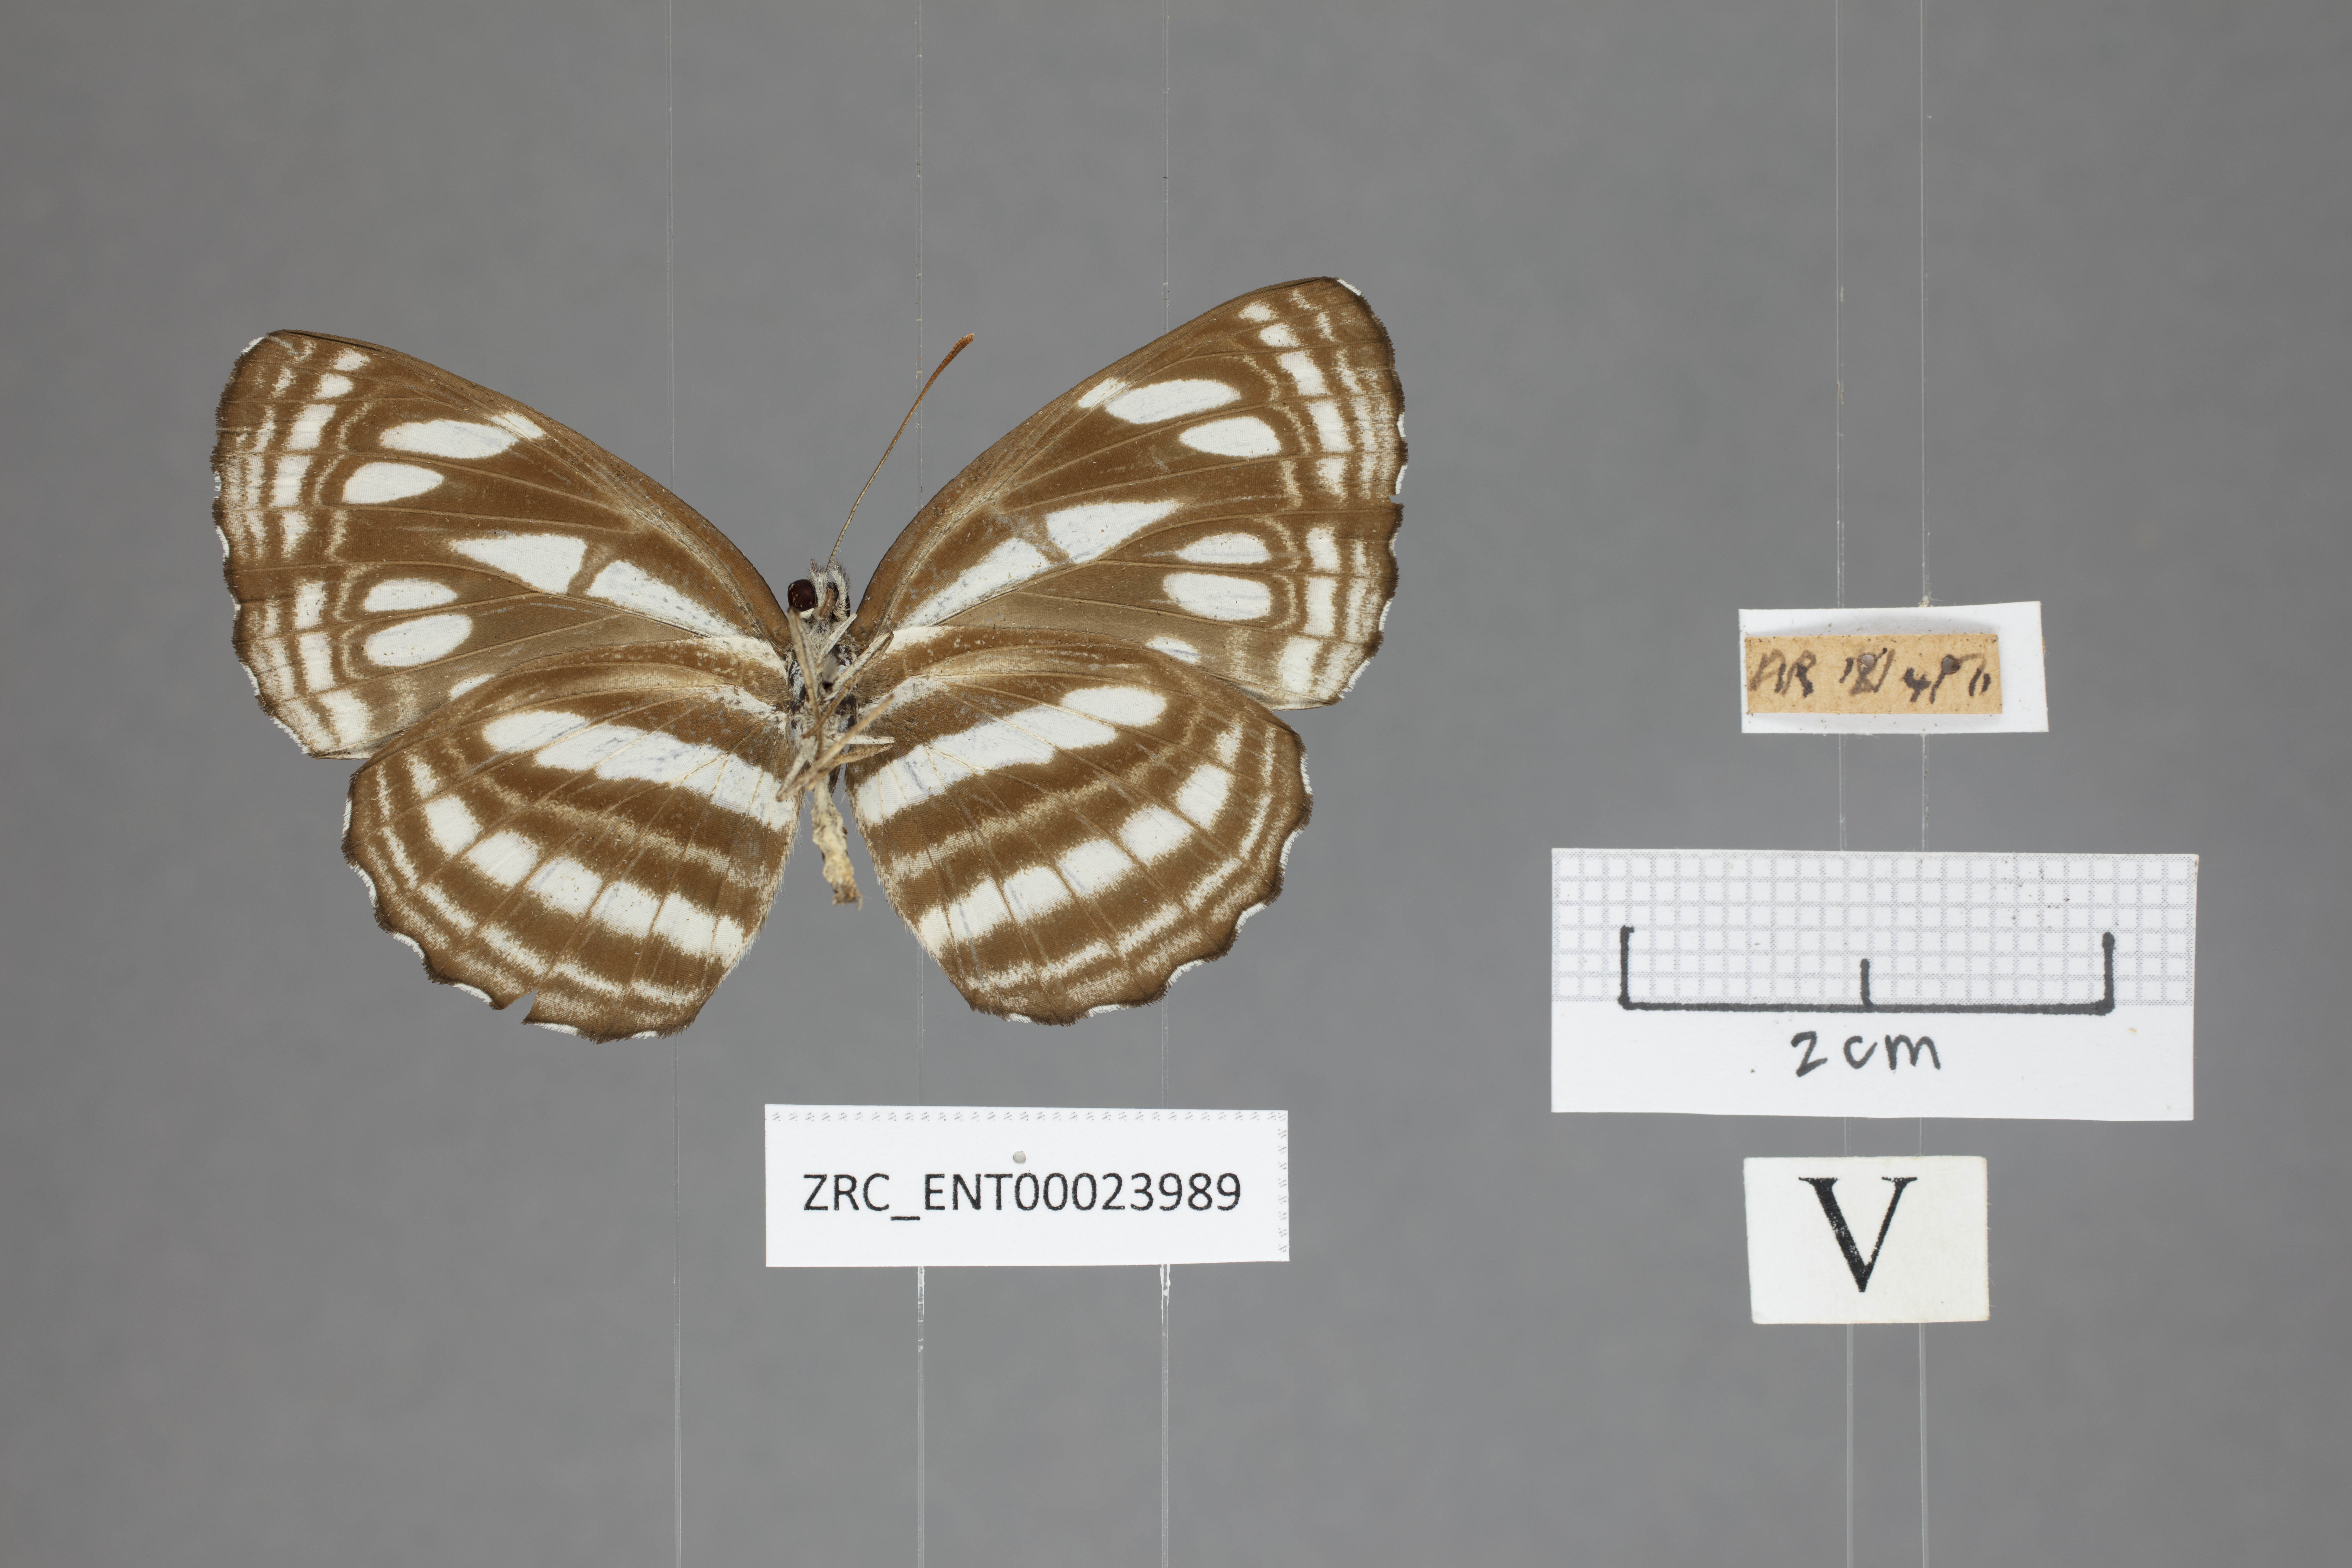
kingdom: Animalia
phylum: Arthropoda
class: Insecta
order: Lepidoptera
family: Nymphalidae
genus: Neptis
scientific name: Neptis duryodana
